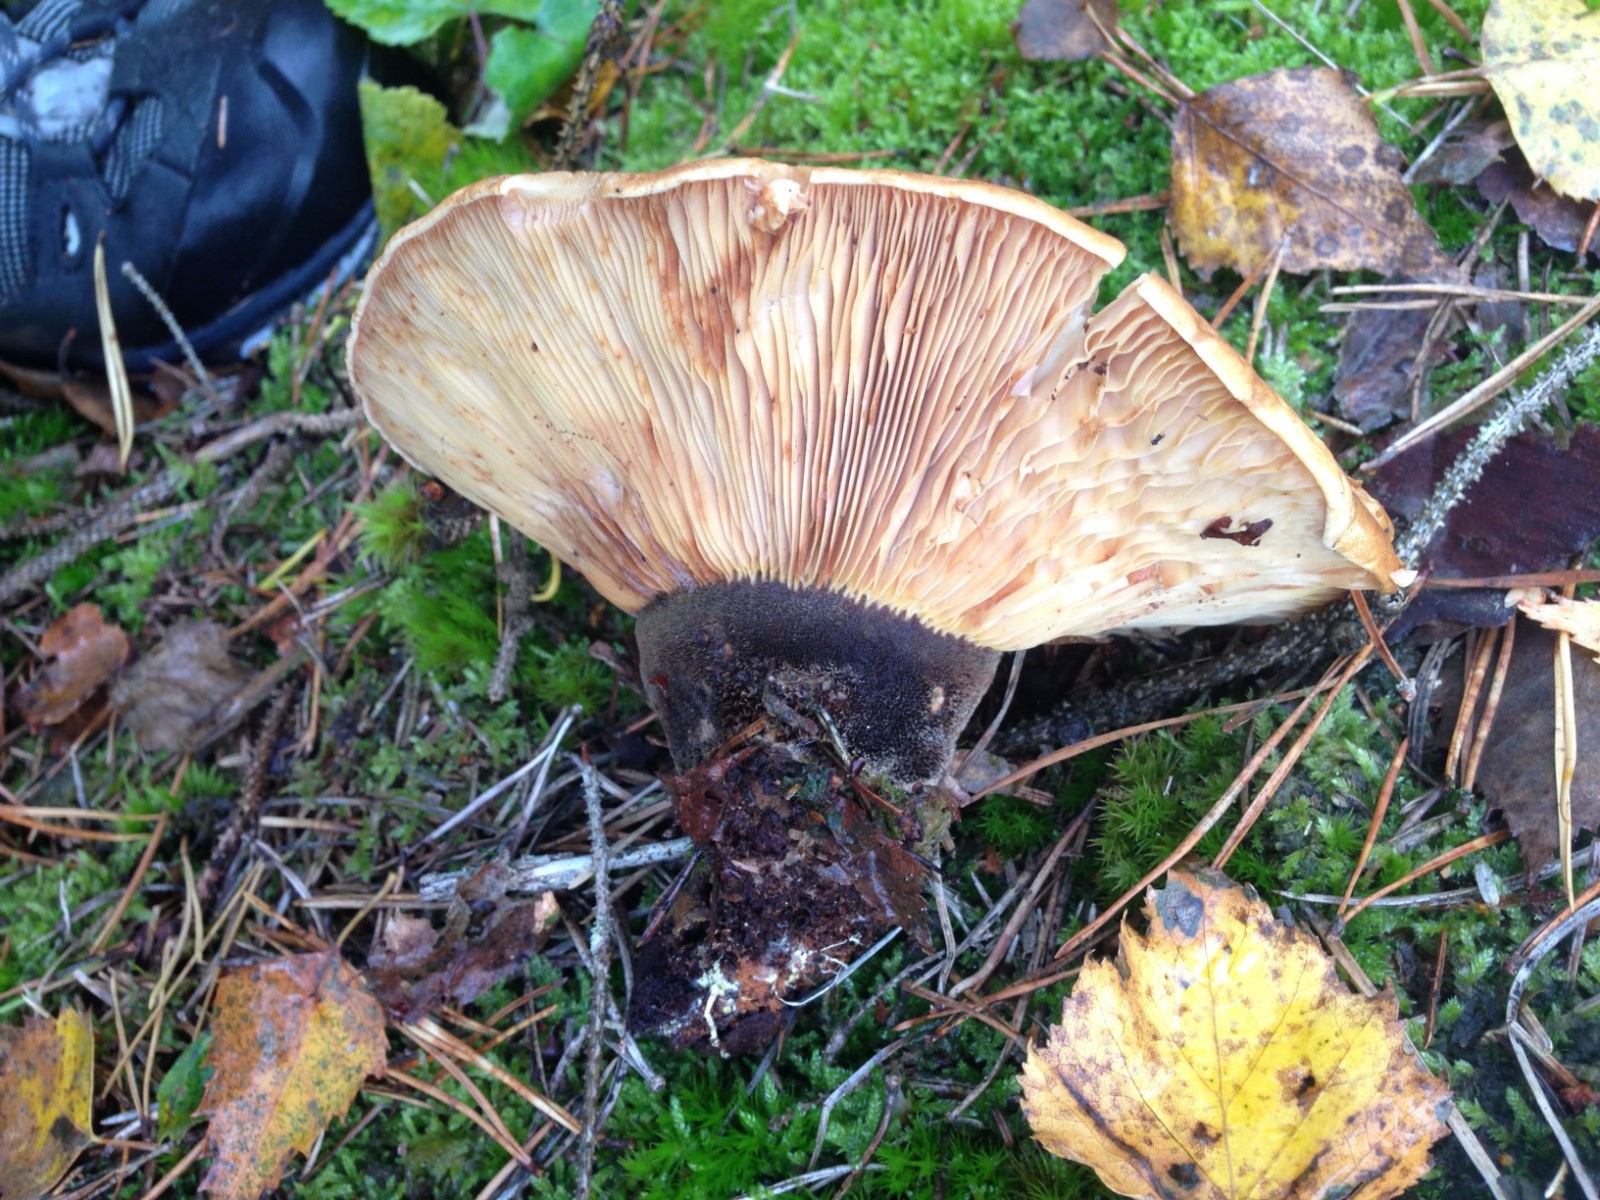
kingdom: Fungi
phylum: Basidiomycota
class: Agaricomycetes
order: Boletales
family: Tapinellaceae
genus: Tapinella
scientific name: Tapinella atrotomentosa
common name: sortfiltet viftesvamp
